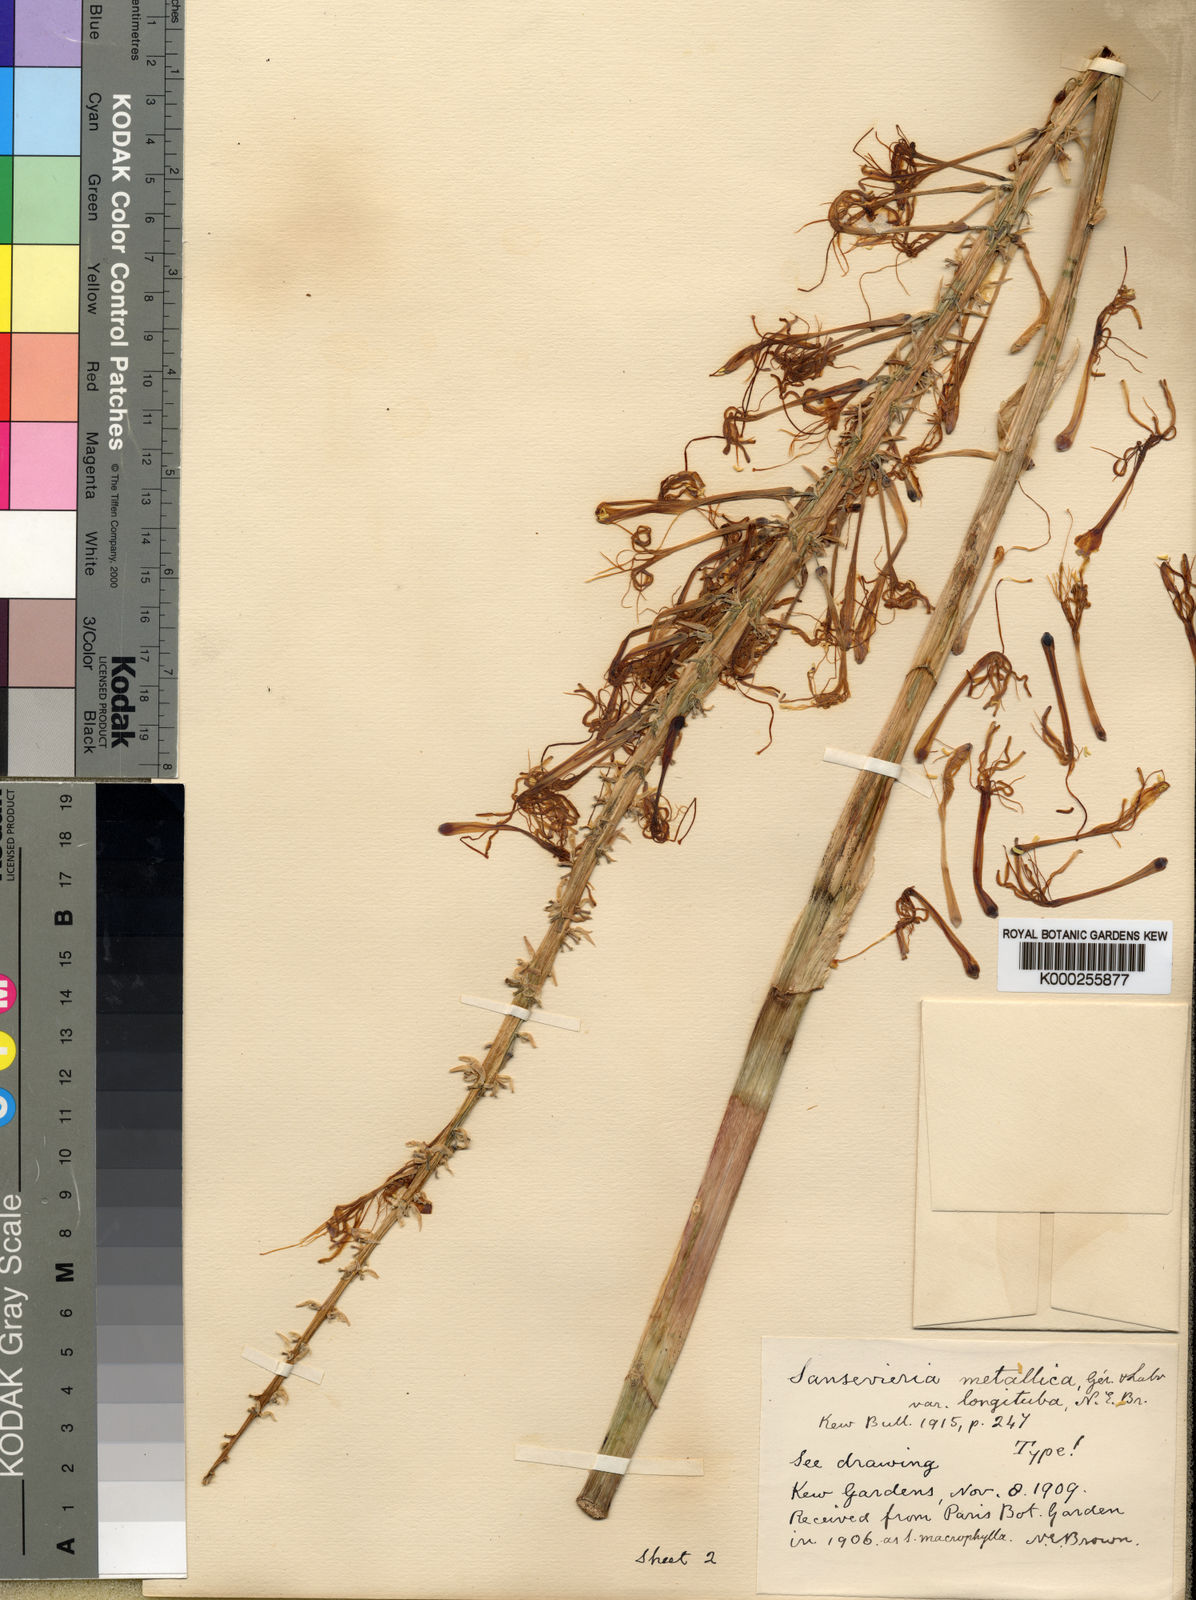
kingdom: Plantae
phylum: Tracheophyta
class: Liliopsida
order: Asparagales
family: Asparagaceae
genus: Dracaena
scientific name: Dracaena zebra
